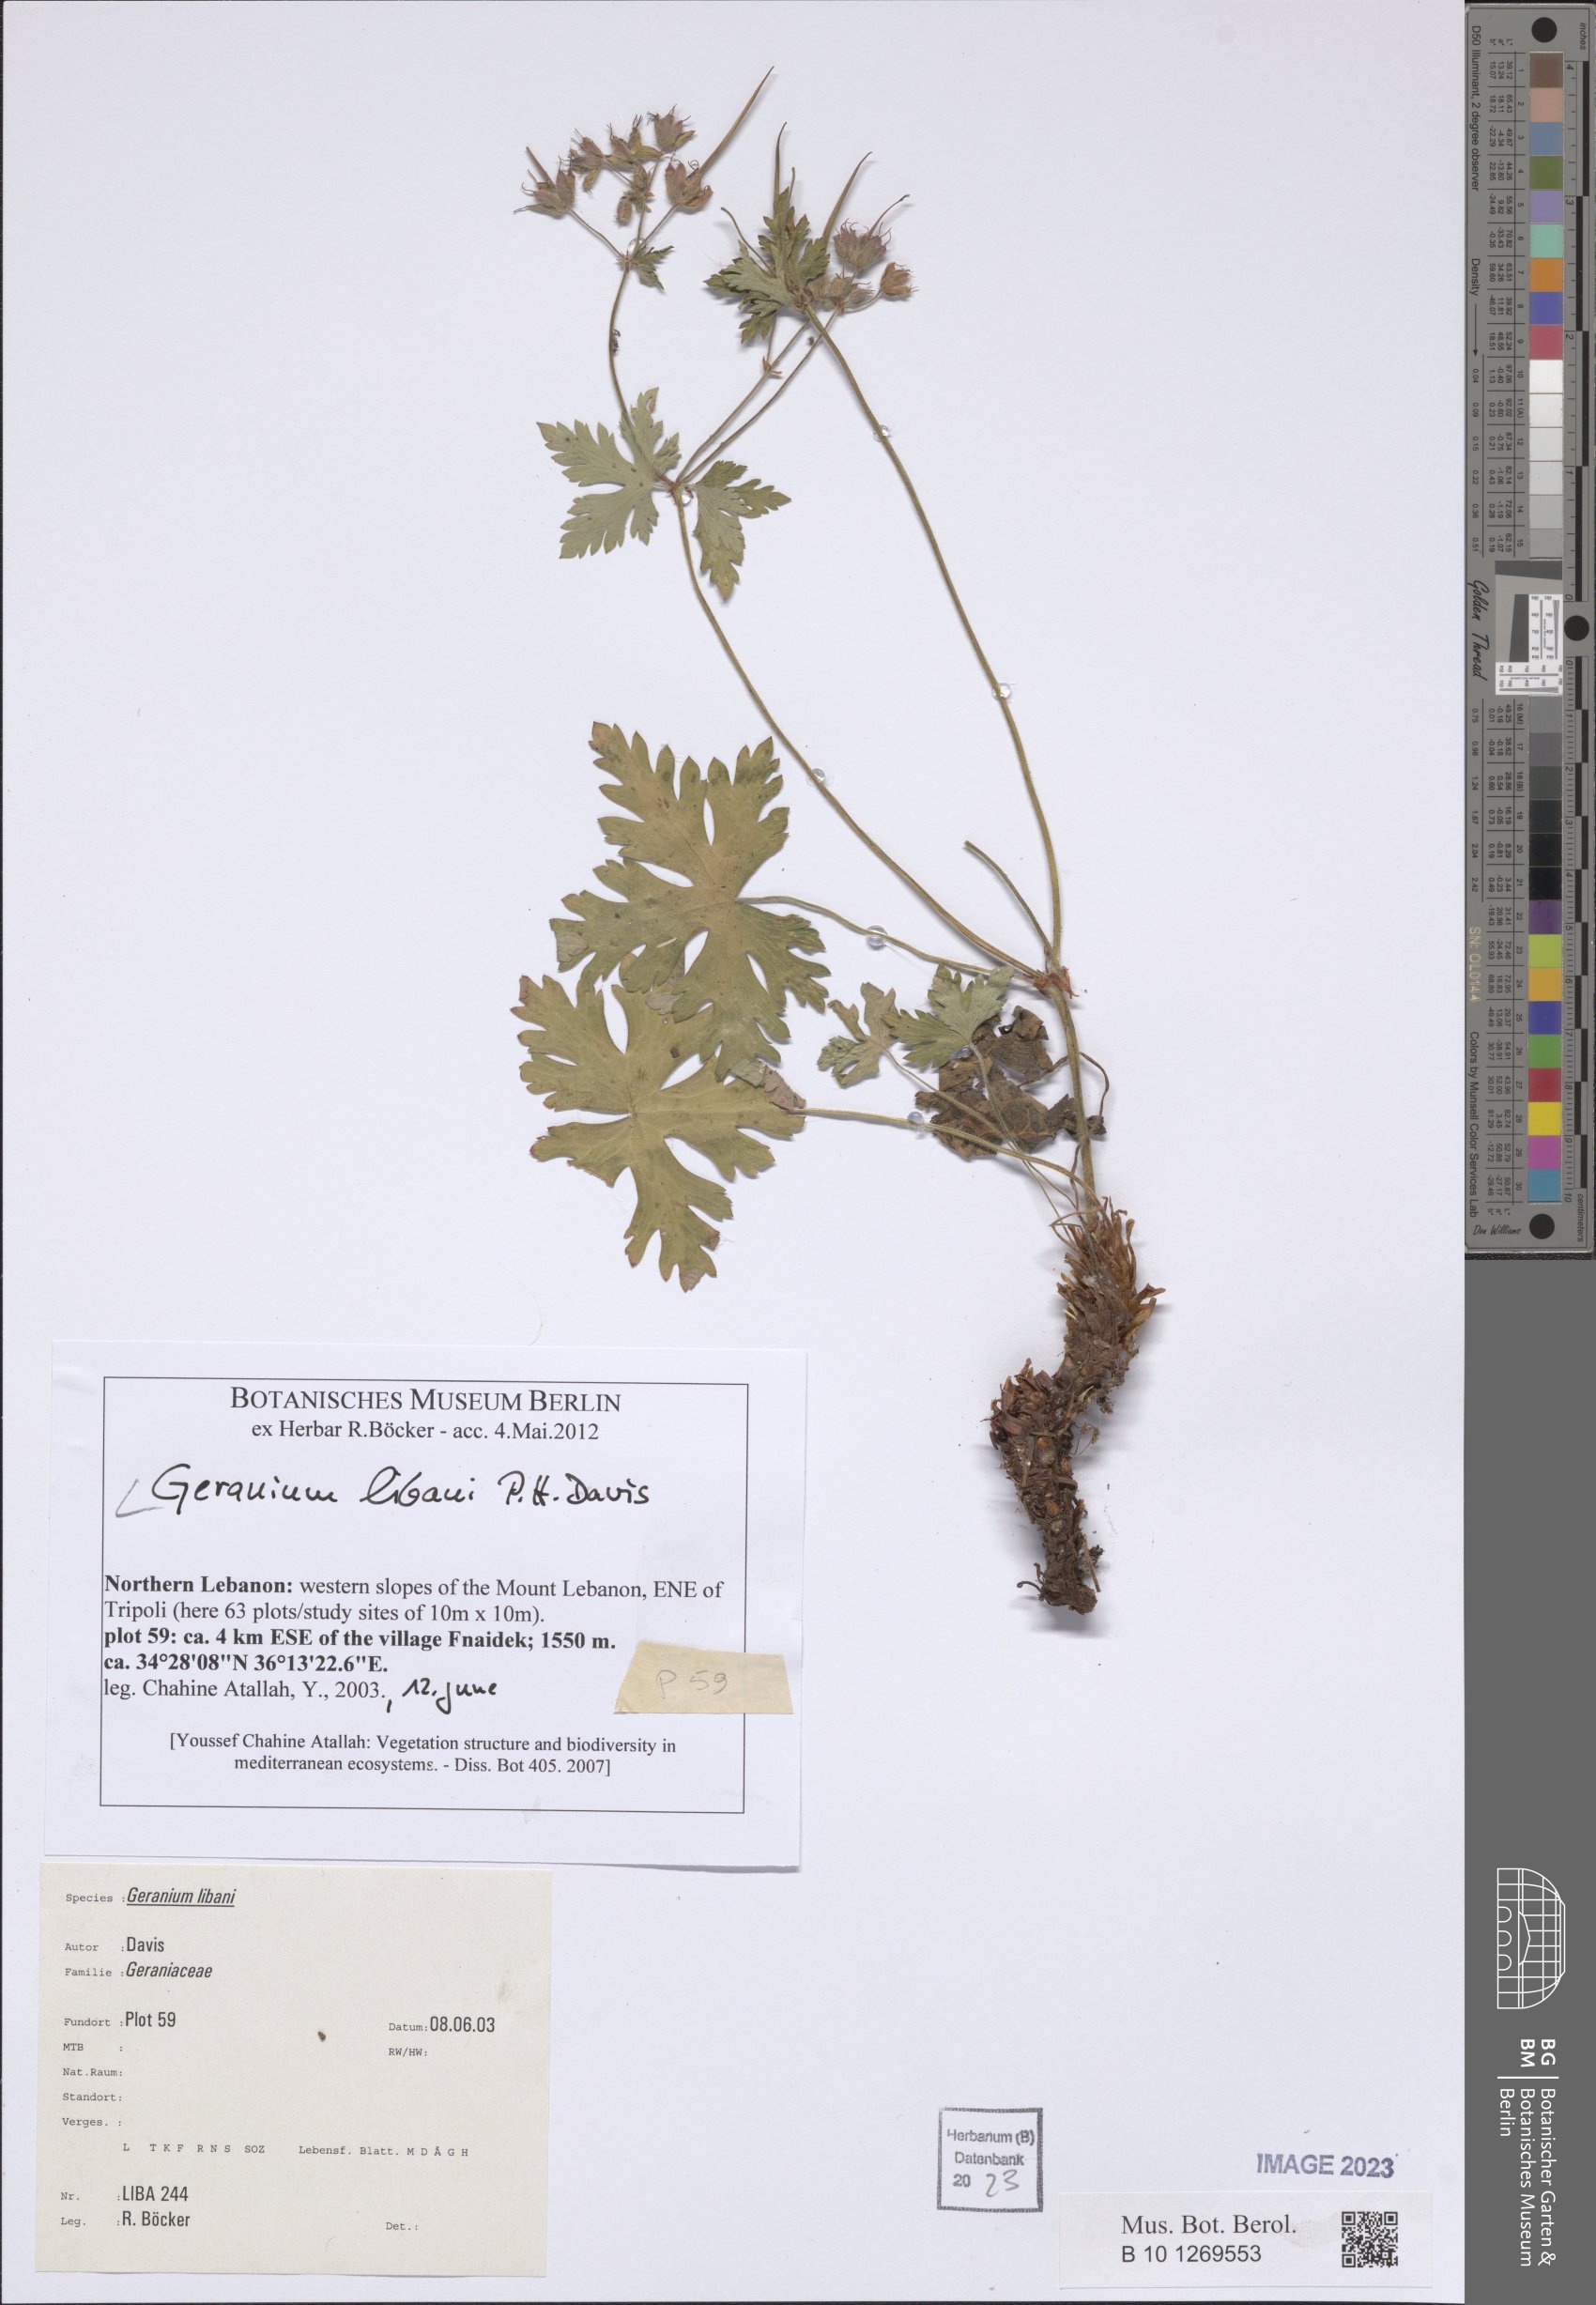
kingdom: Plantae
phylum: Tracheophyta
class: Magnoliopsida
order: Geraniales
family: Geraniaceae
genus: Geranium
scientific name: Geranium libani
